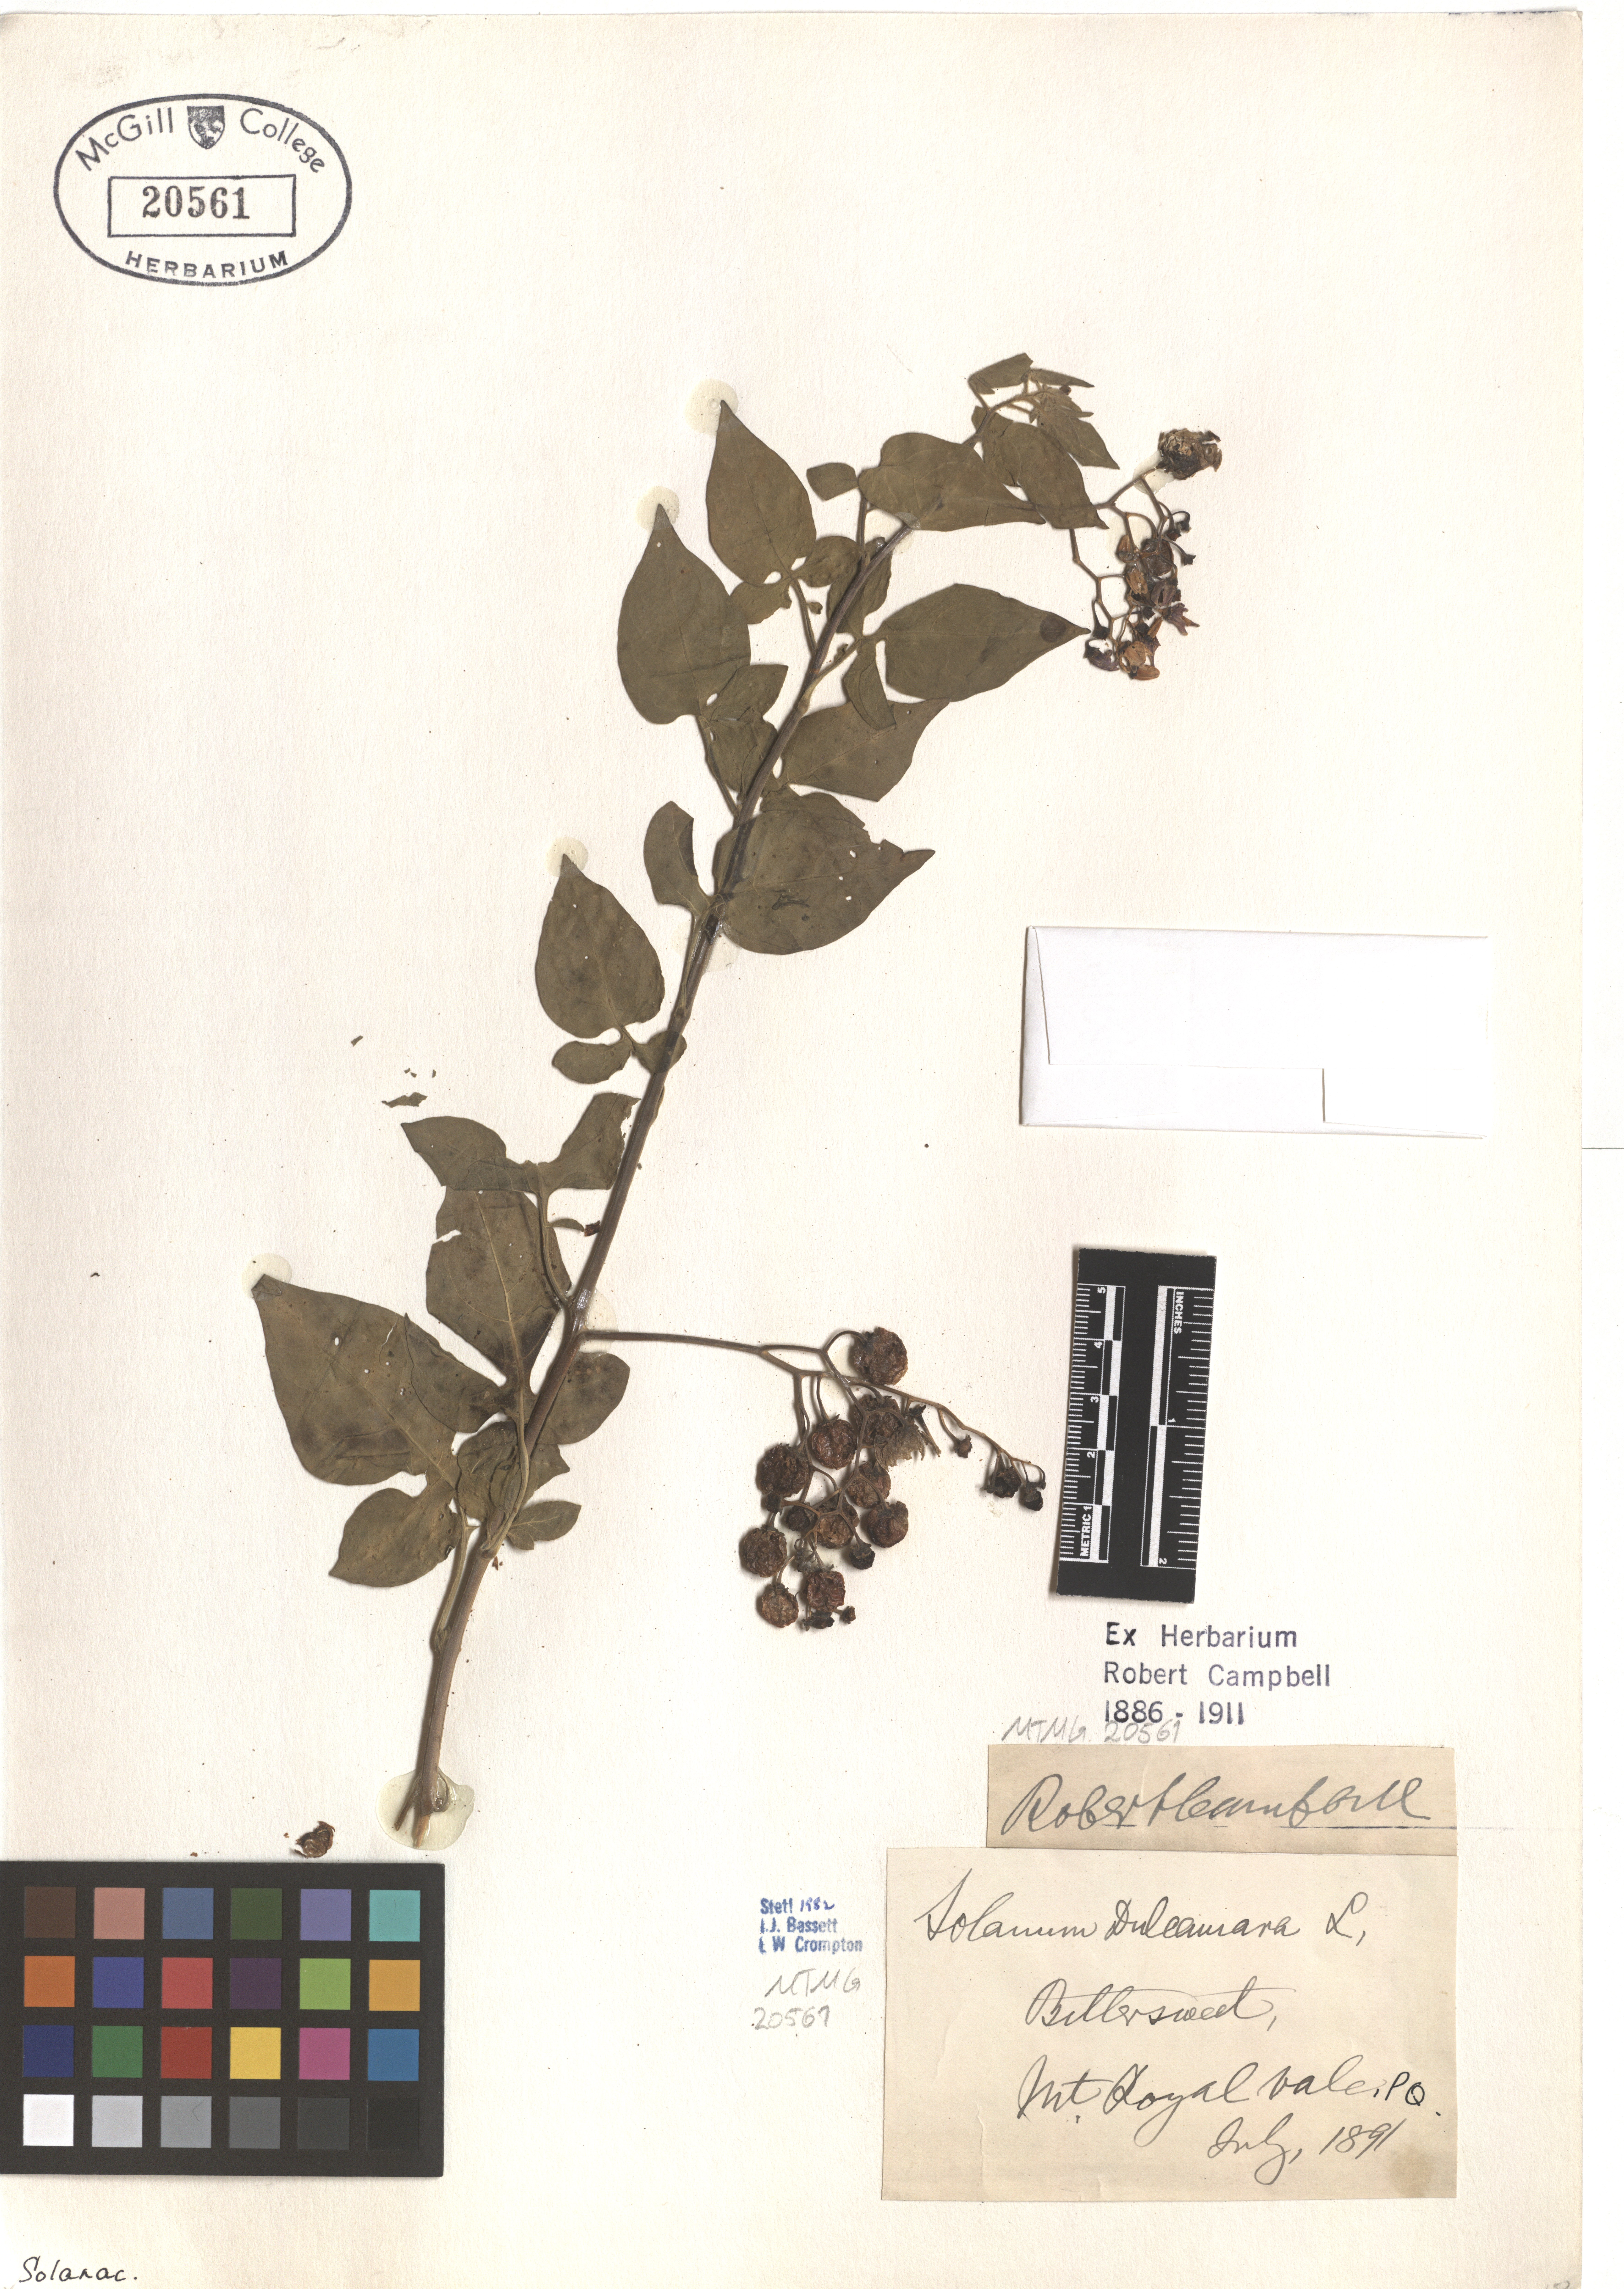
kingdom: Plantae
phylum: Tracheophyta
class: Magnoliopsida
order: Solanales
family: Solanaceae
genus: Solanum
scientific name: Solanum dulcamara
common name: Climbing nightshade
